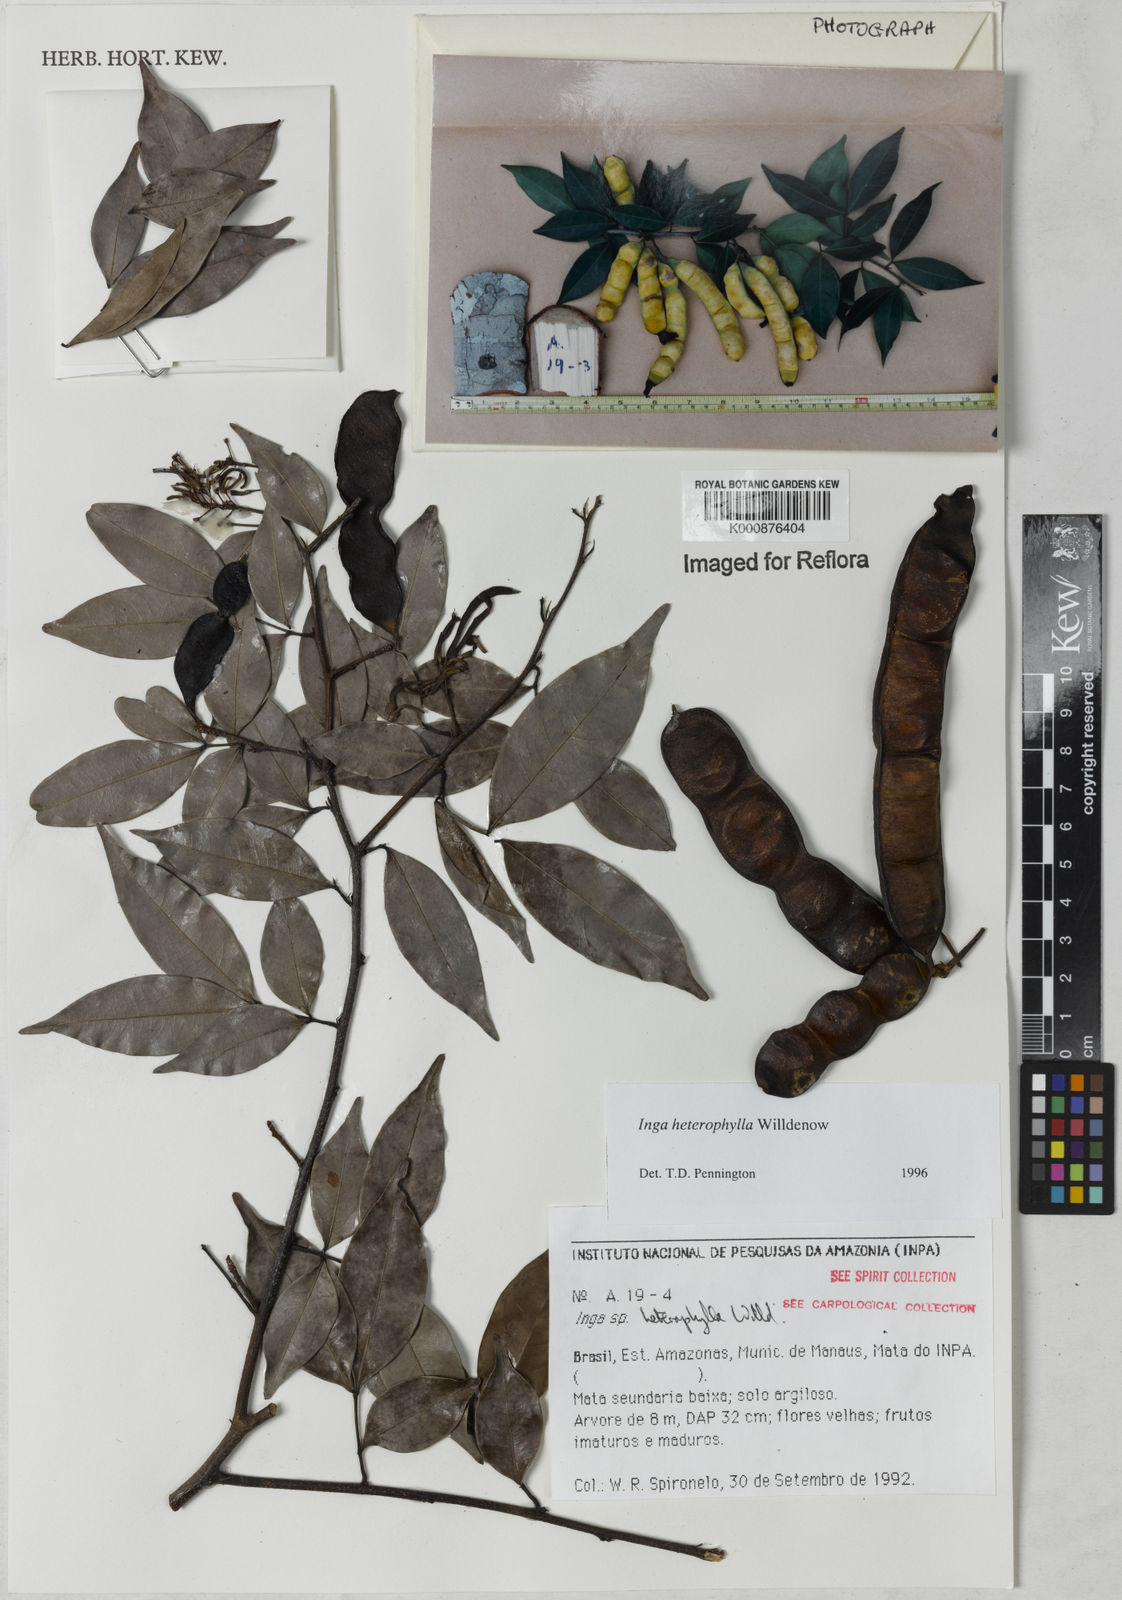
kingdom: Plantae
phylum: Tracheophyta
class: Magnoliopsida
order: Fabales
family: Fabaceae
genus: Inga
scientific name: Inga heterophylla
